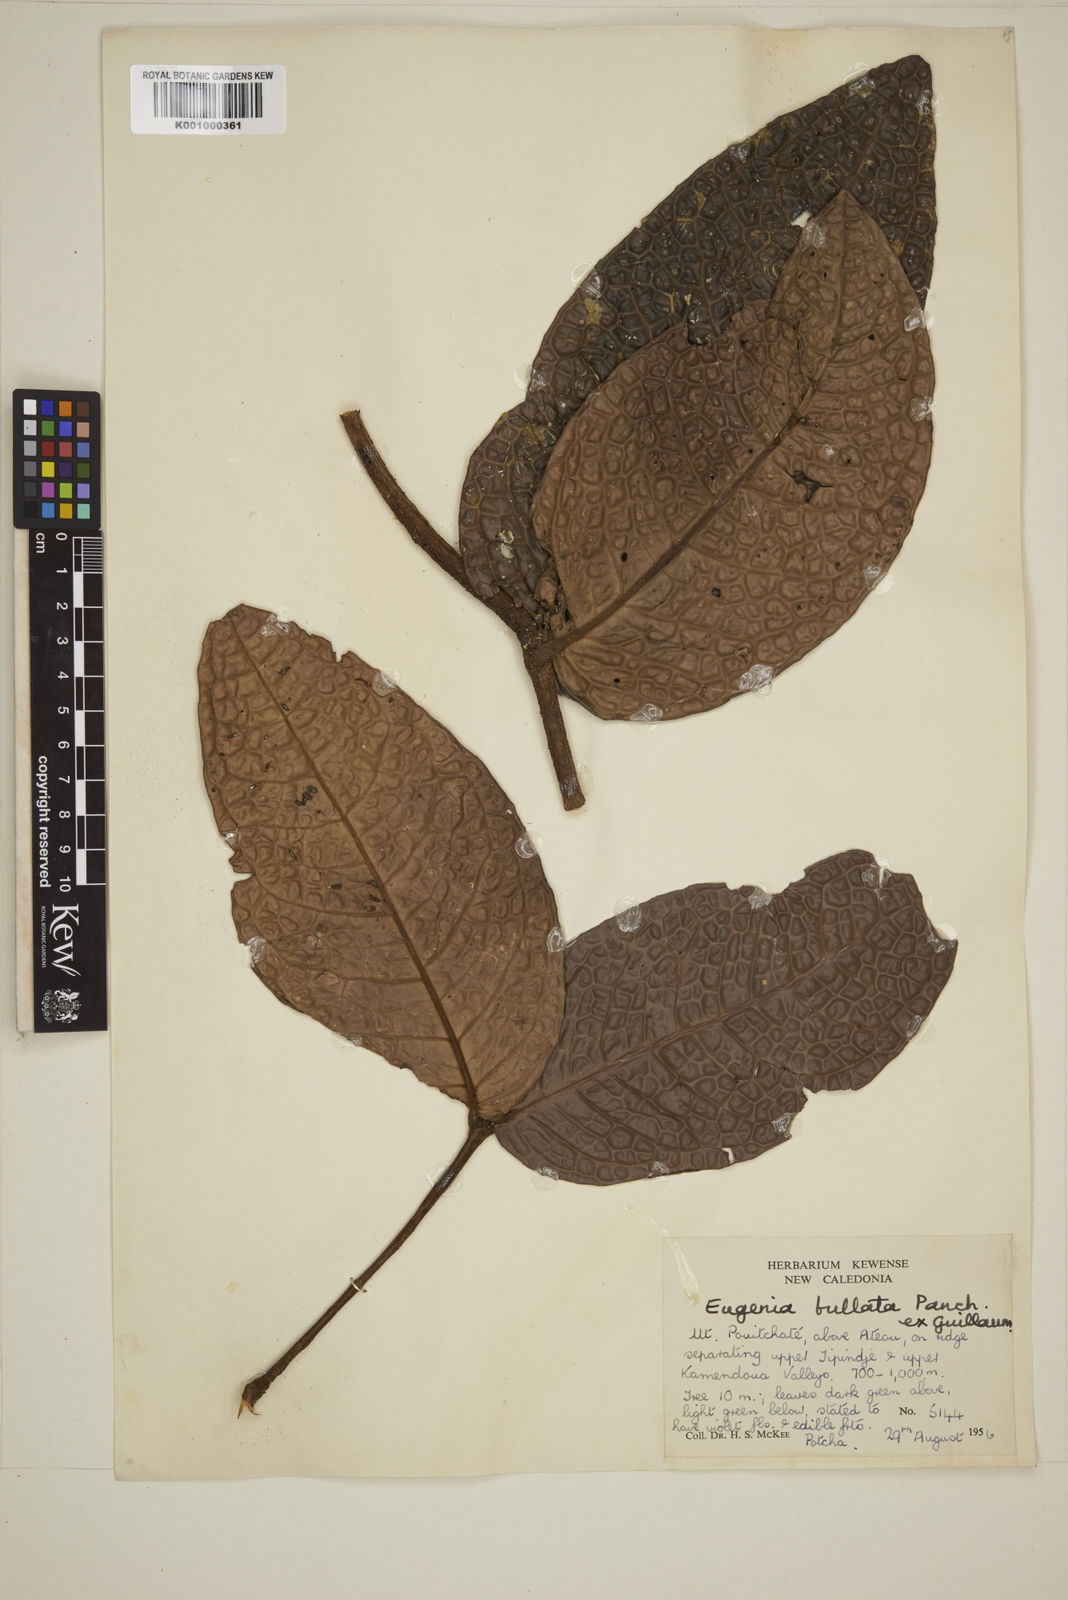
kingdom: Plantae
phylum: Tracheophyta
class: Magnoliopsida
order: Myrtales
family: Myrtaceae
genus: Eugenia
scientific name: Eugenia
